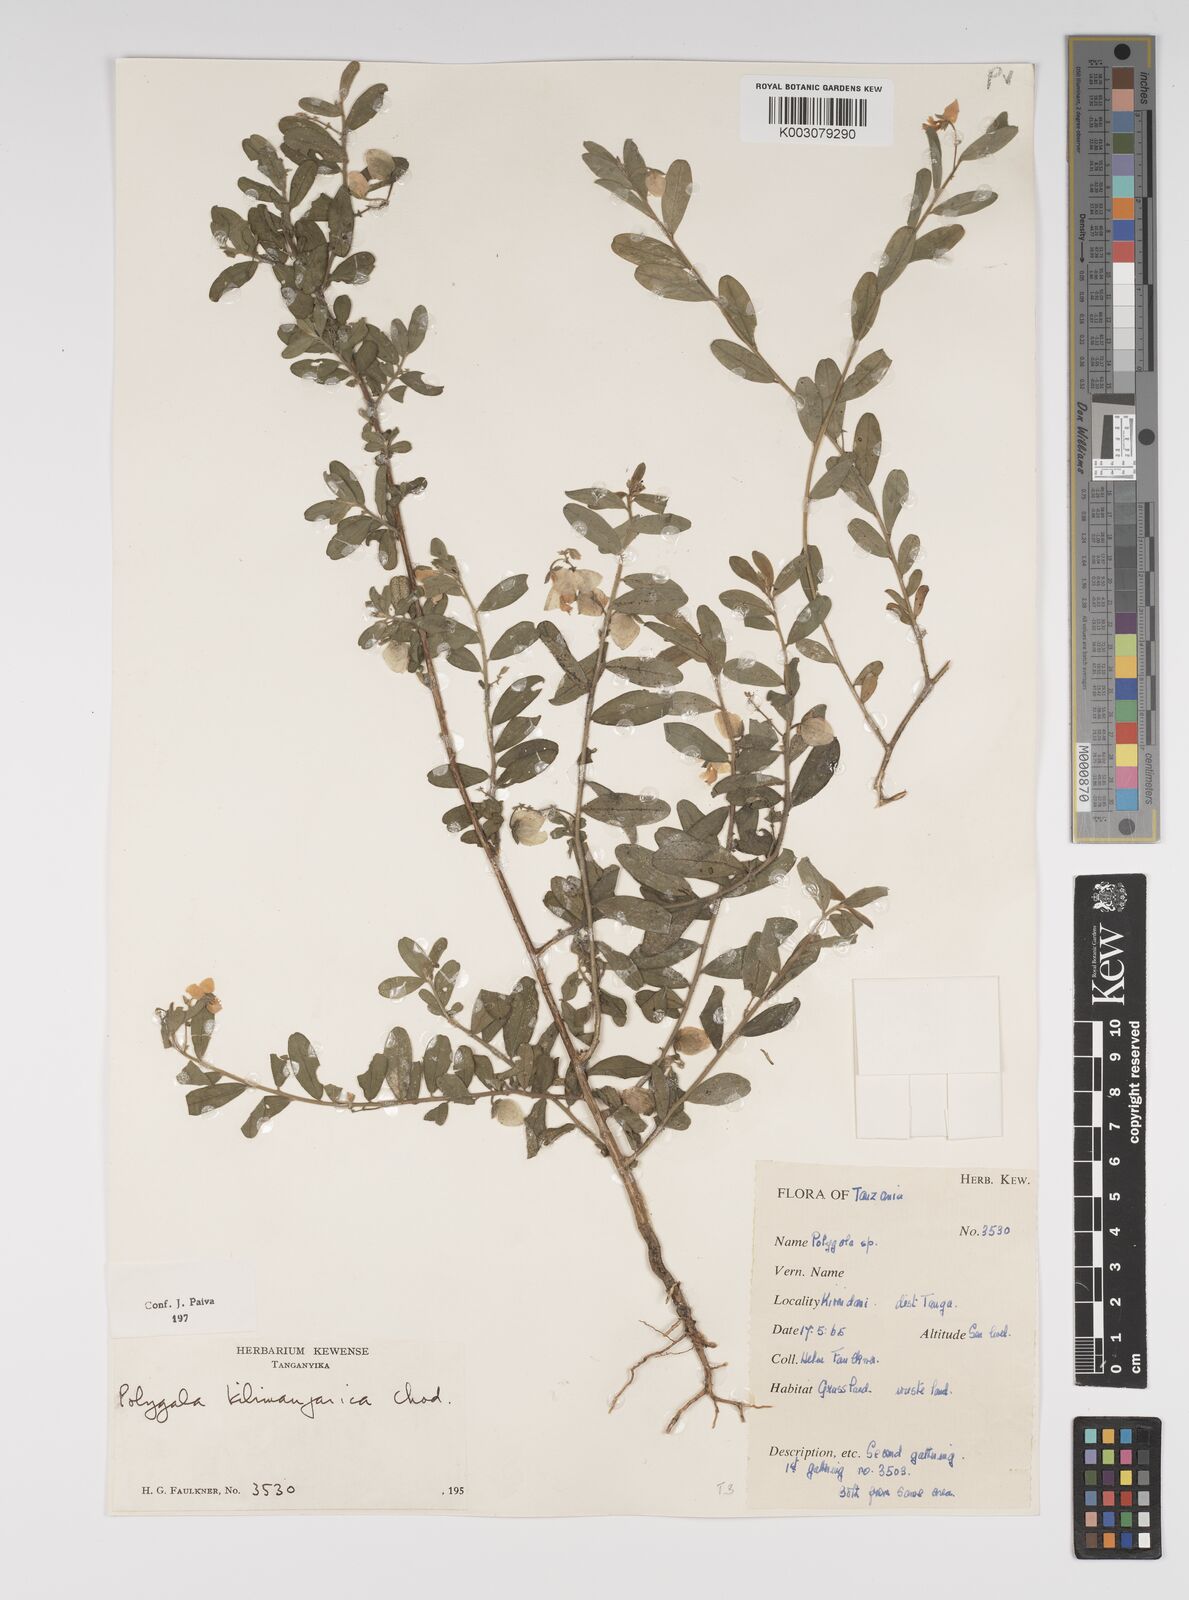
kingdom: Plantae
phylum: Tracheophyta
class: Magnoliopsida
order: Fabales
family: Polygalaceae
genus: Polygala
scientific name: Polygala kilimandjarica
